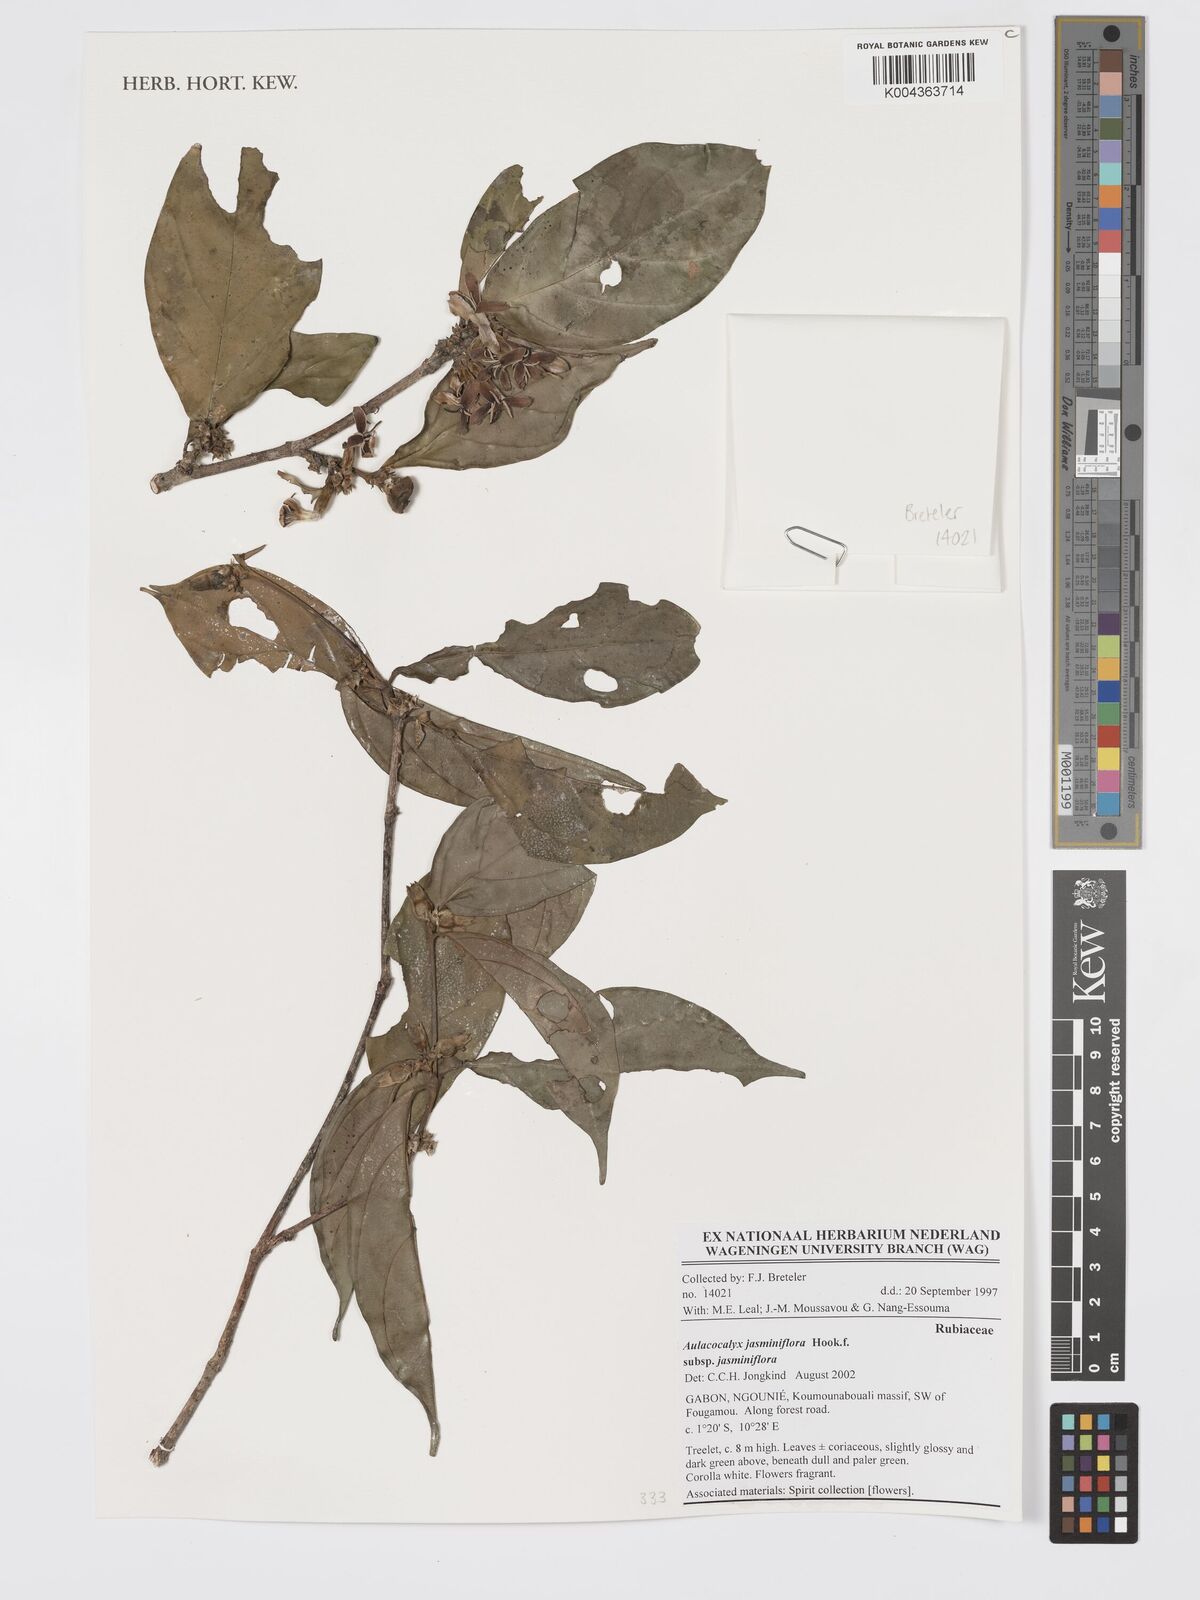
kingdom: Plantae
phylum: Tracheophyta
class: Magnoliopsida
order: Gentianales
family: Rubiaceae
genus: Aulacocalyx
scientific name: Aulacocalyx jasminiflora
